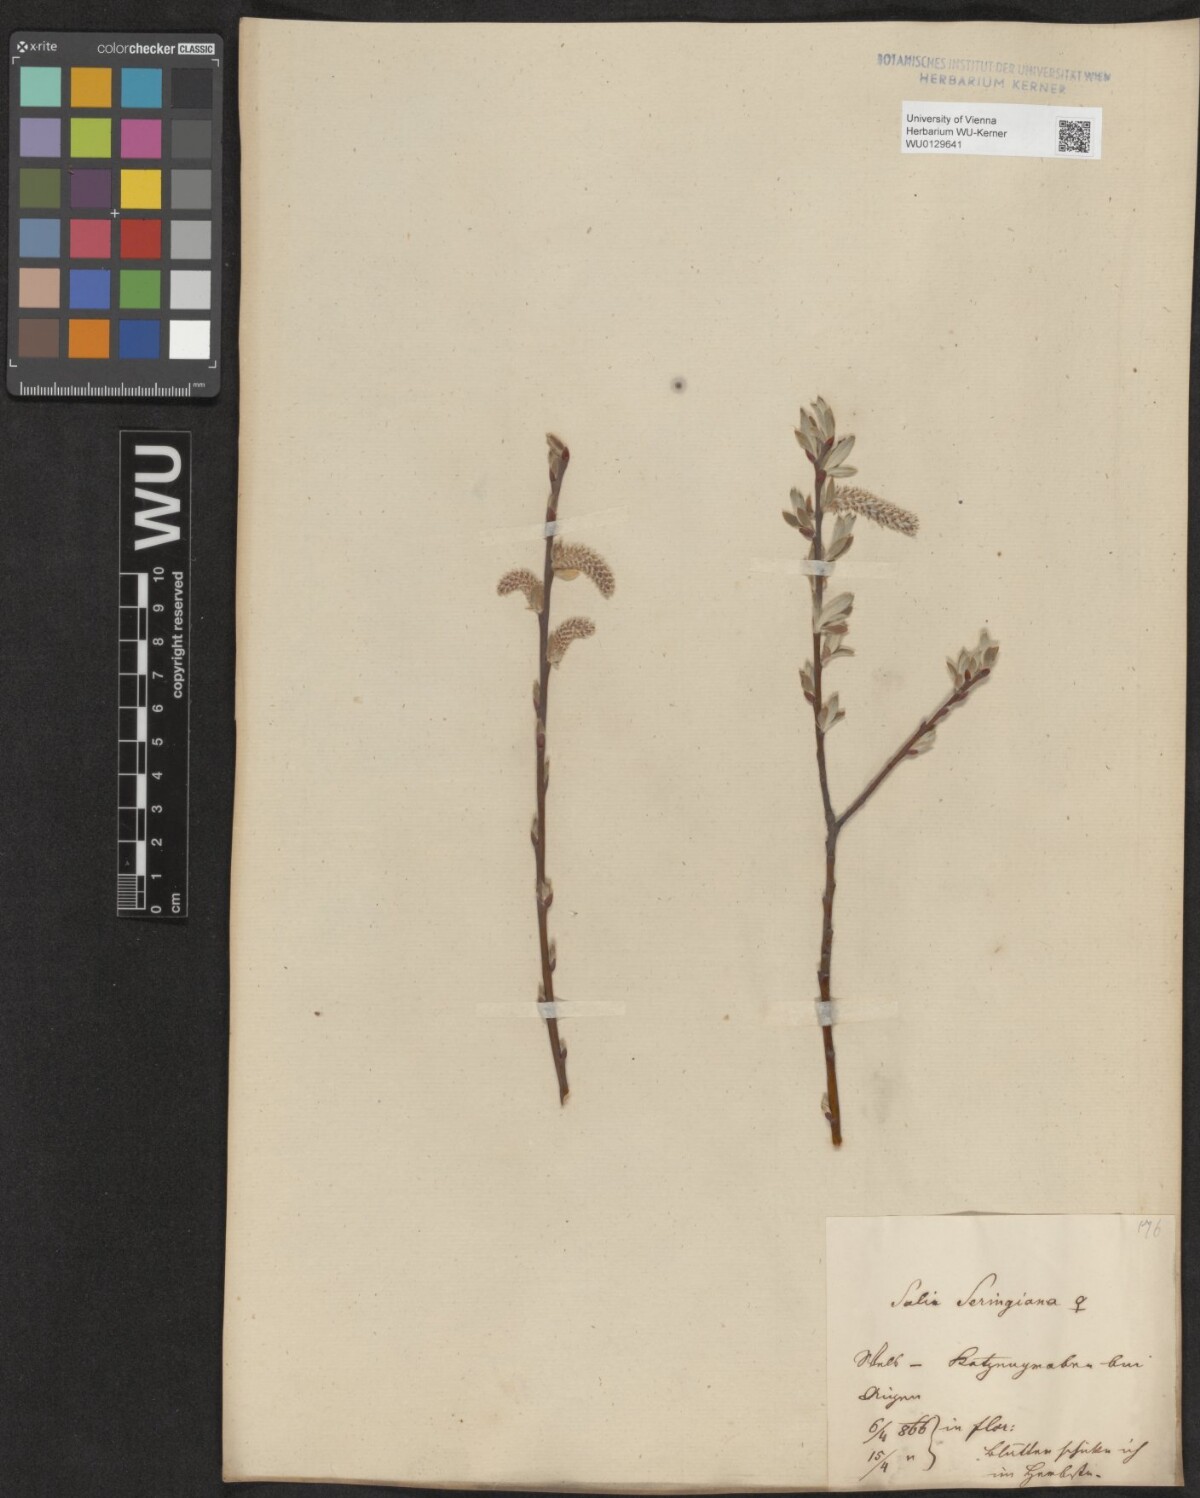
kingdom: Plantae
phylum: Tracheophyta
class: Magnoliopsida
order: Malpighiales
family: Salicaceae
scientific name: Salicaceae
